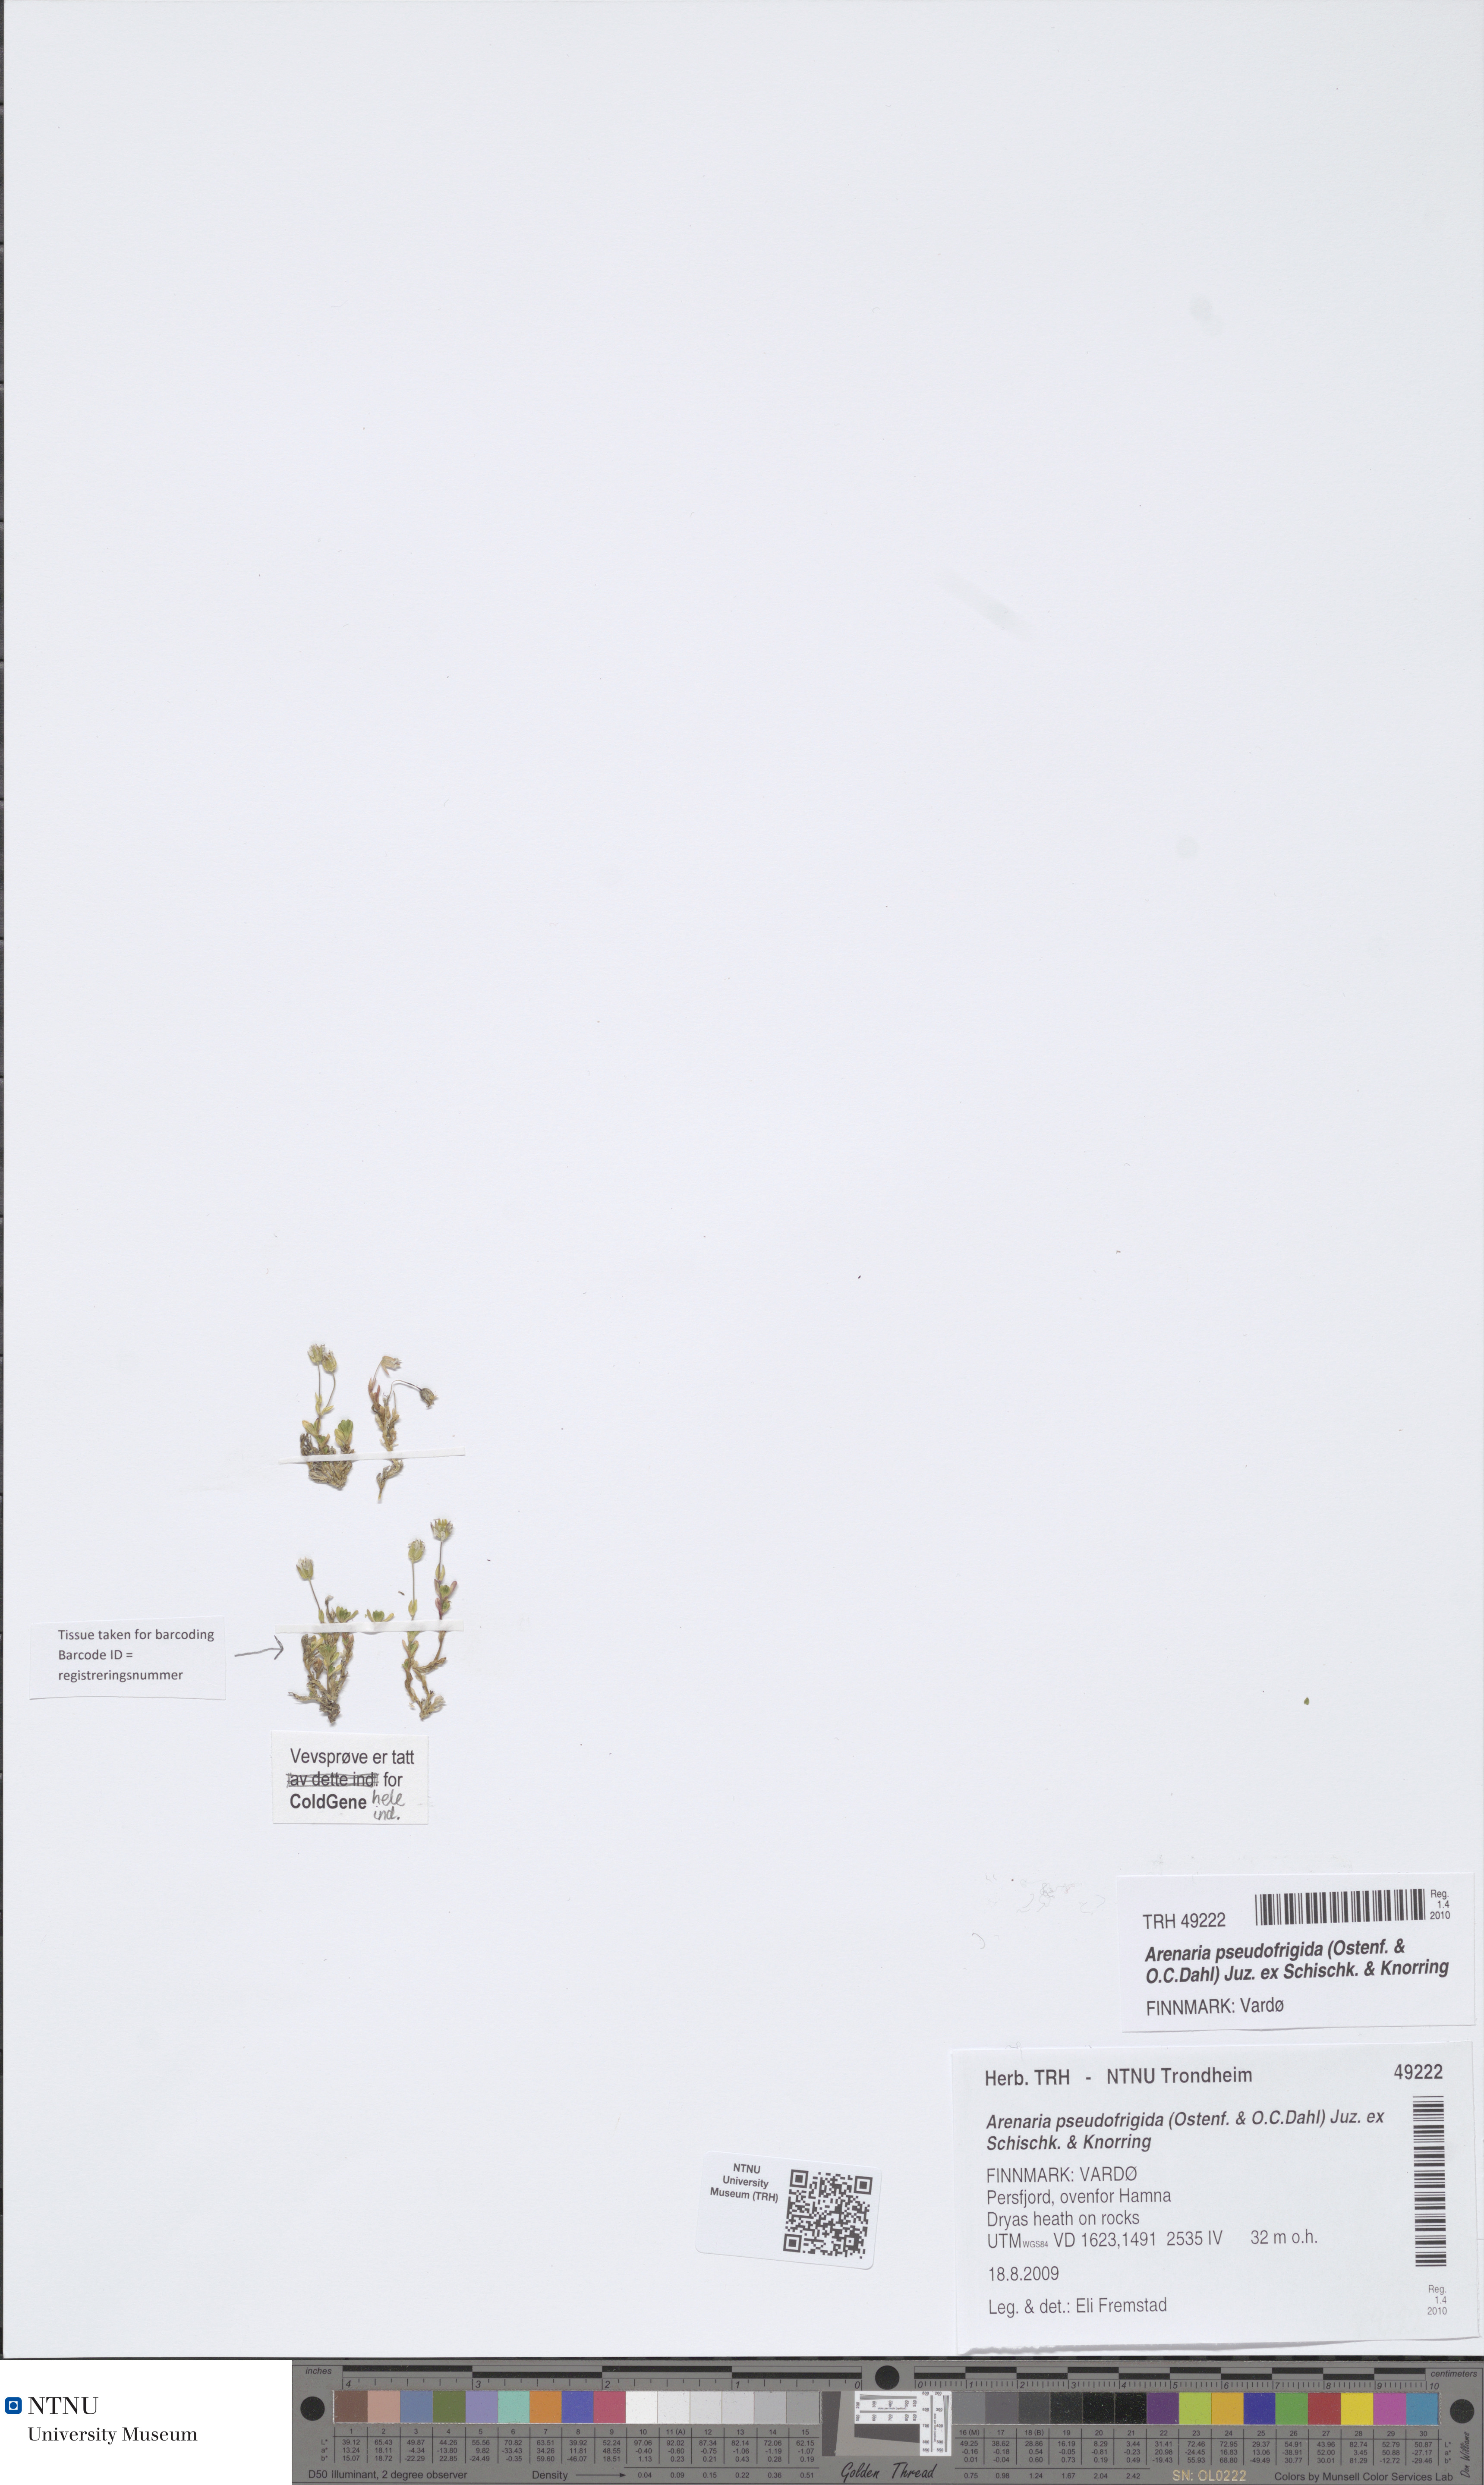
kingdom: Plantae
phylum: Tracheophyta
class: Magnoliopsida
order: Caryophyllales
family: Caryophyllaceae
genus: Arenaria
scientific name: Arenaria pseudofrigida
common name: Tundra sandwort
